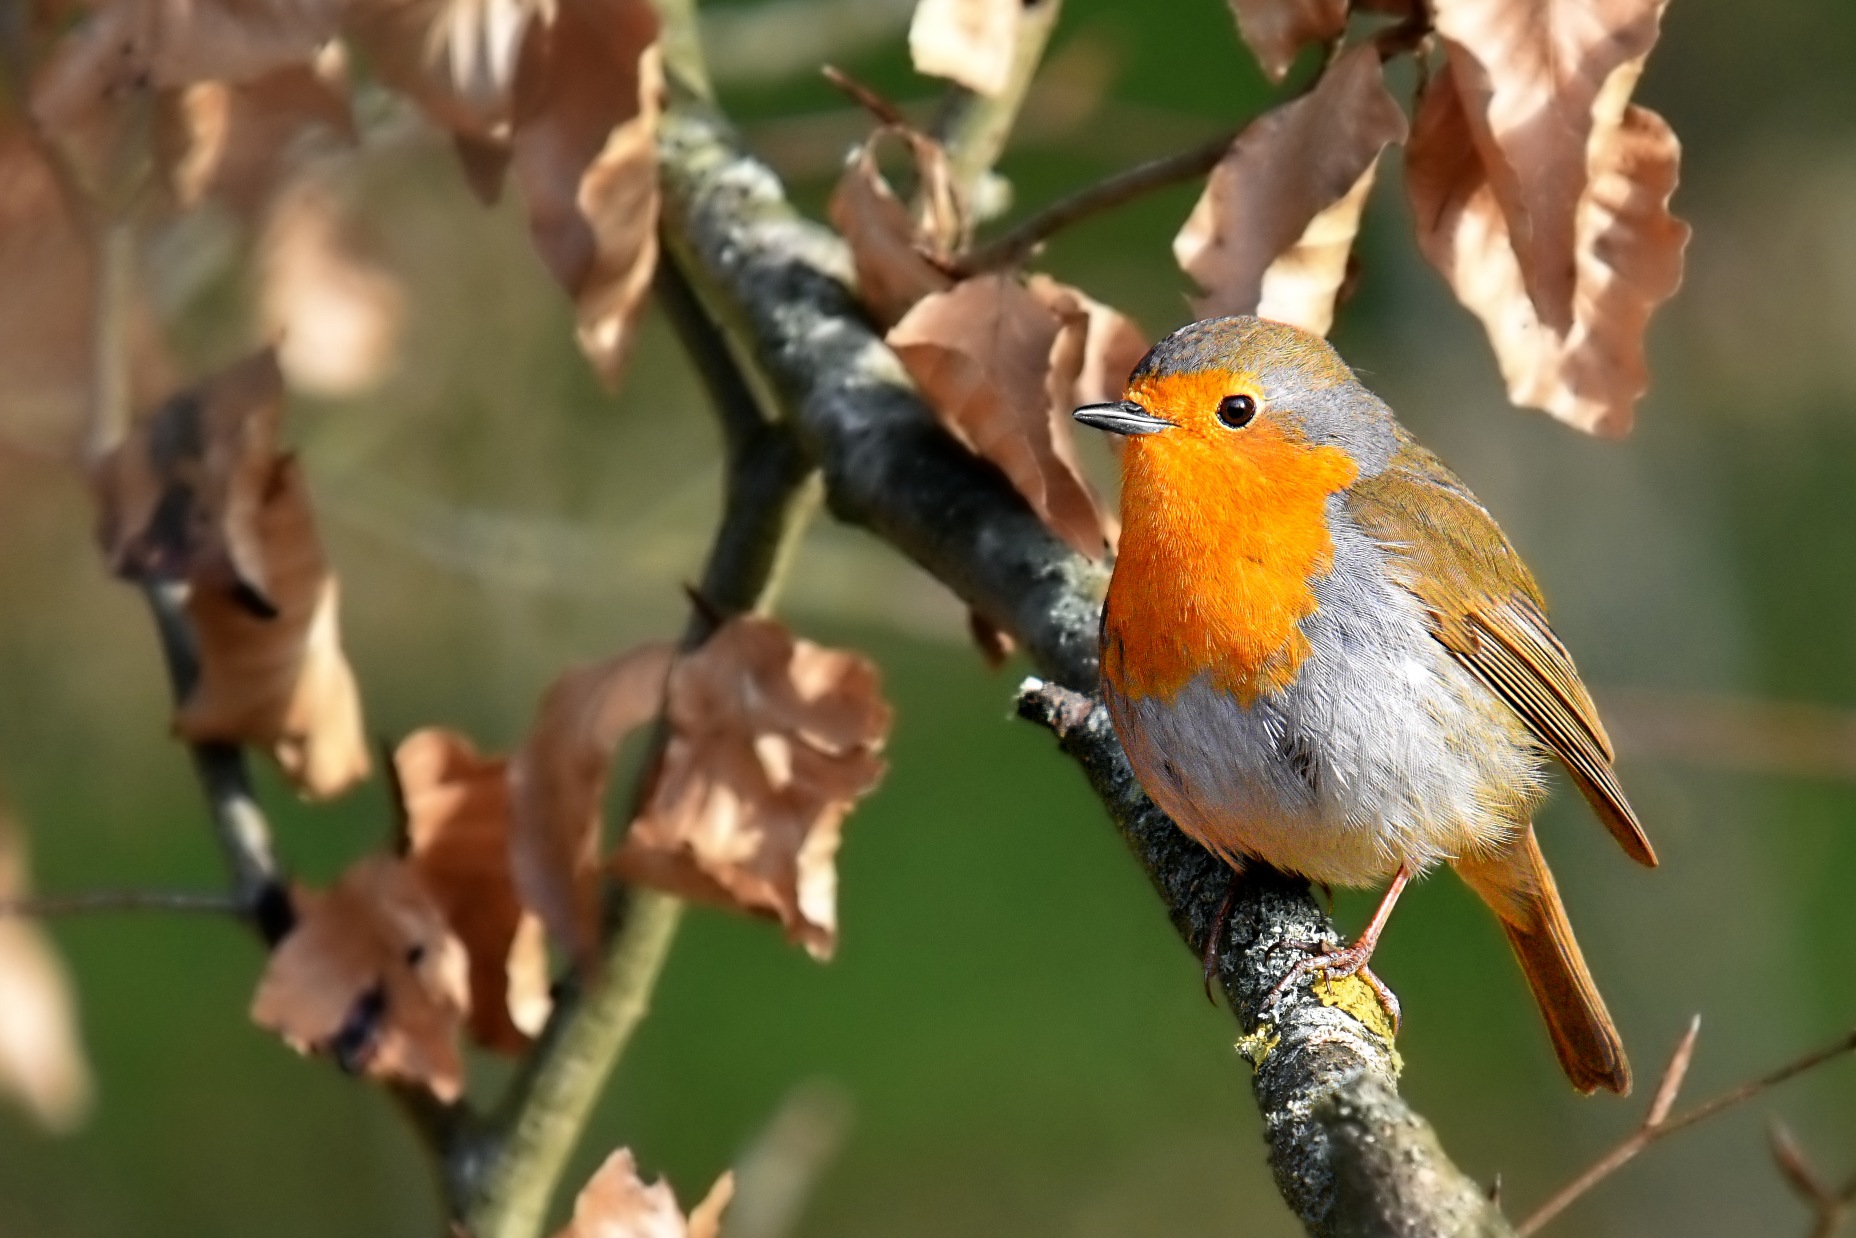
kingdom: Animalia
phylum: Chordata
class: Aves
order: Passeriformes
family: Muscicapidae
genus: Erithacus
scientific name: Erithacus rubecula
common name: Rødhals/rødkælk
